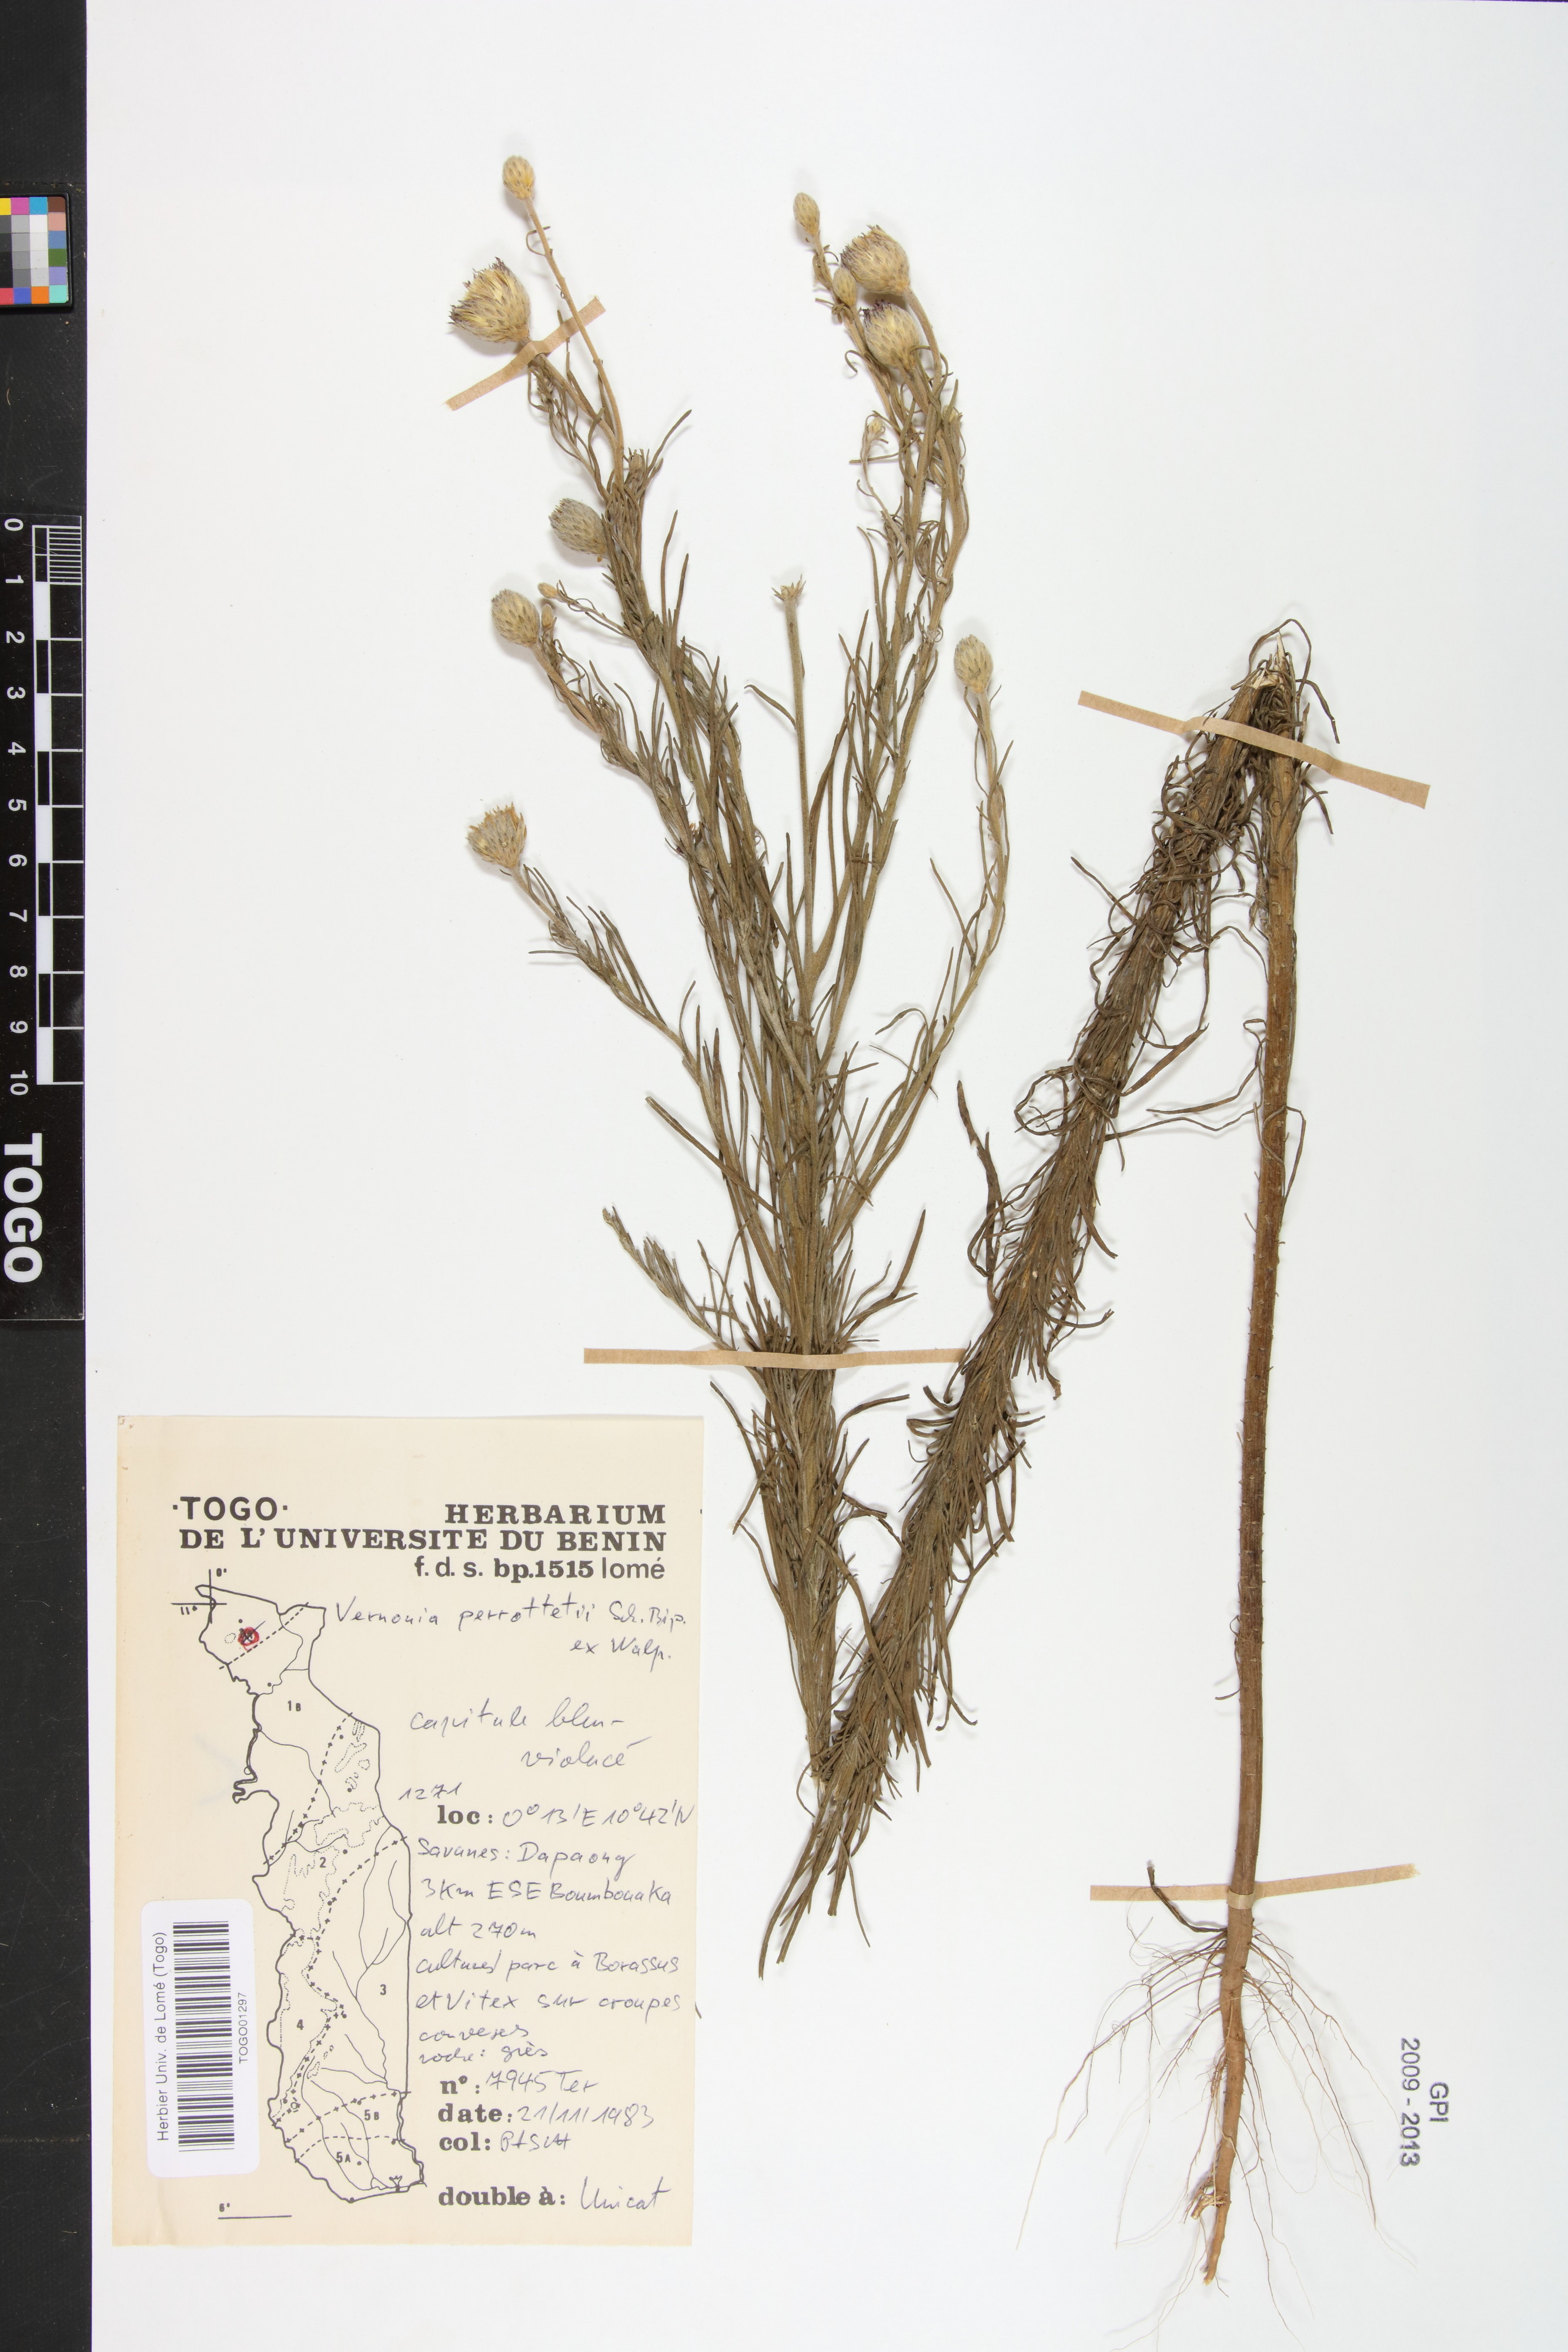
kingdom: Plantae
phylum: Tracheophyta
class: Magnoliopsida
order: Asterales
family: Asteraceae
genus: Crystallopollen
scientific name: Crystallopollen serratuloides
